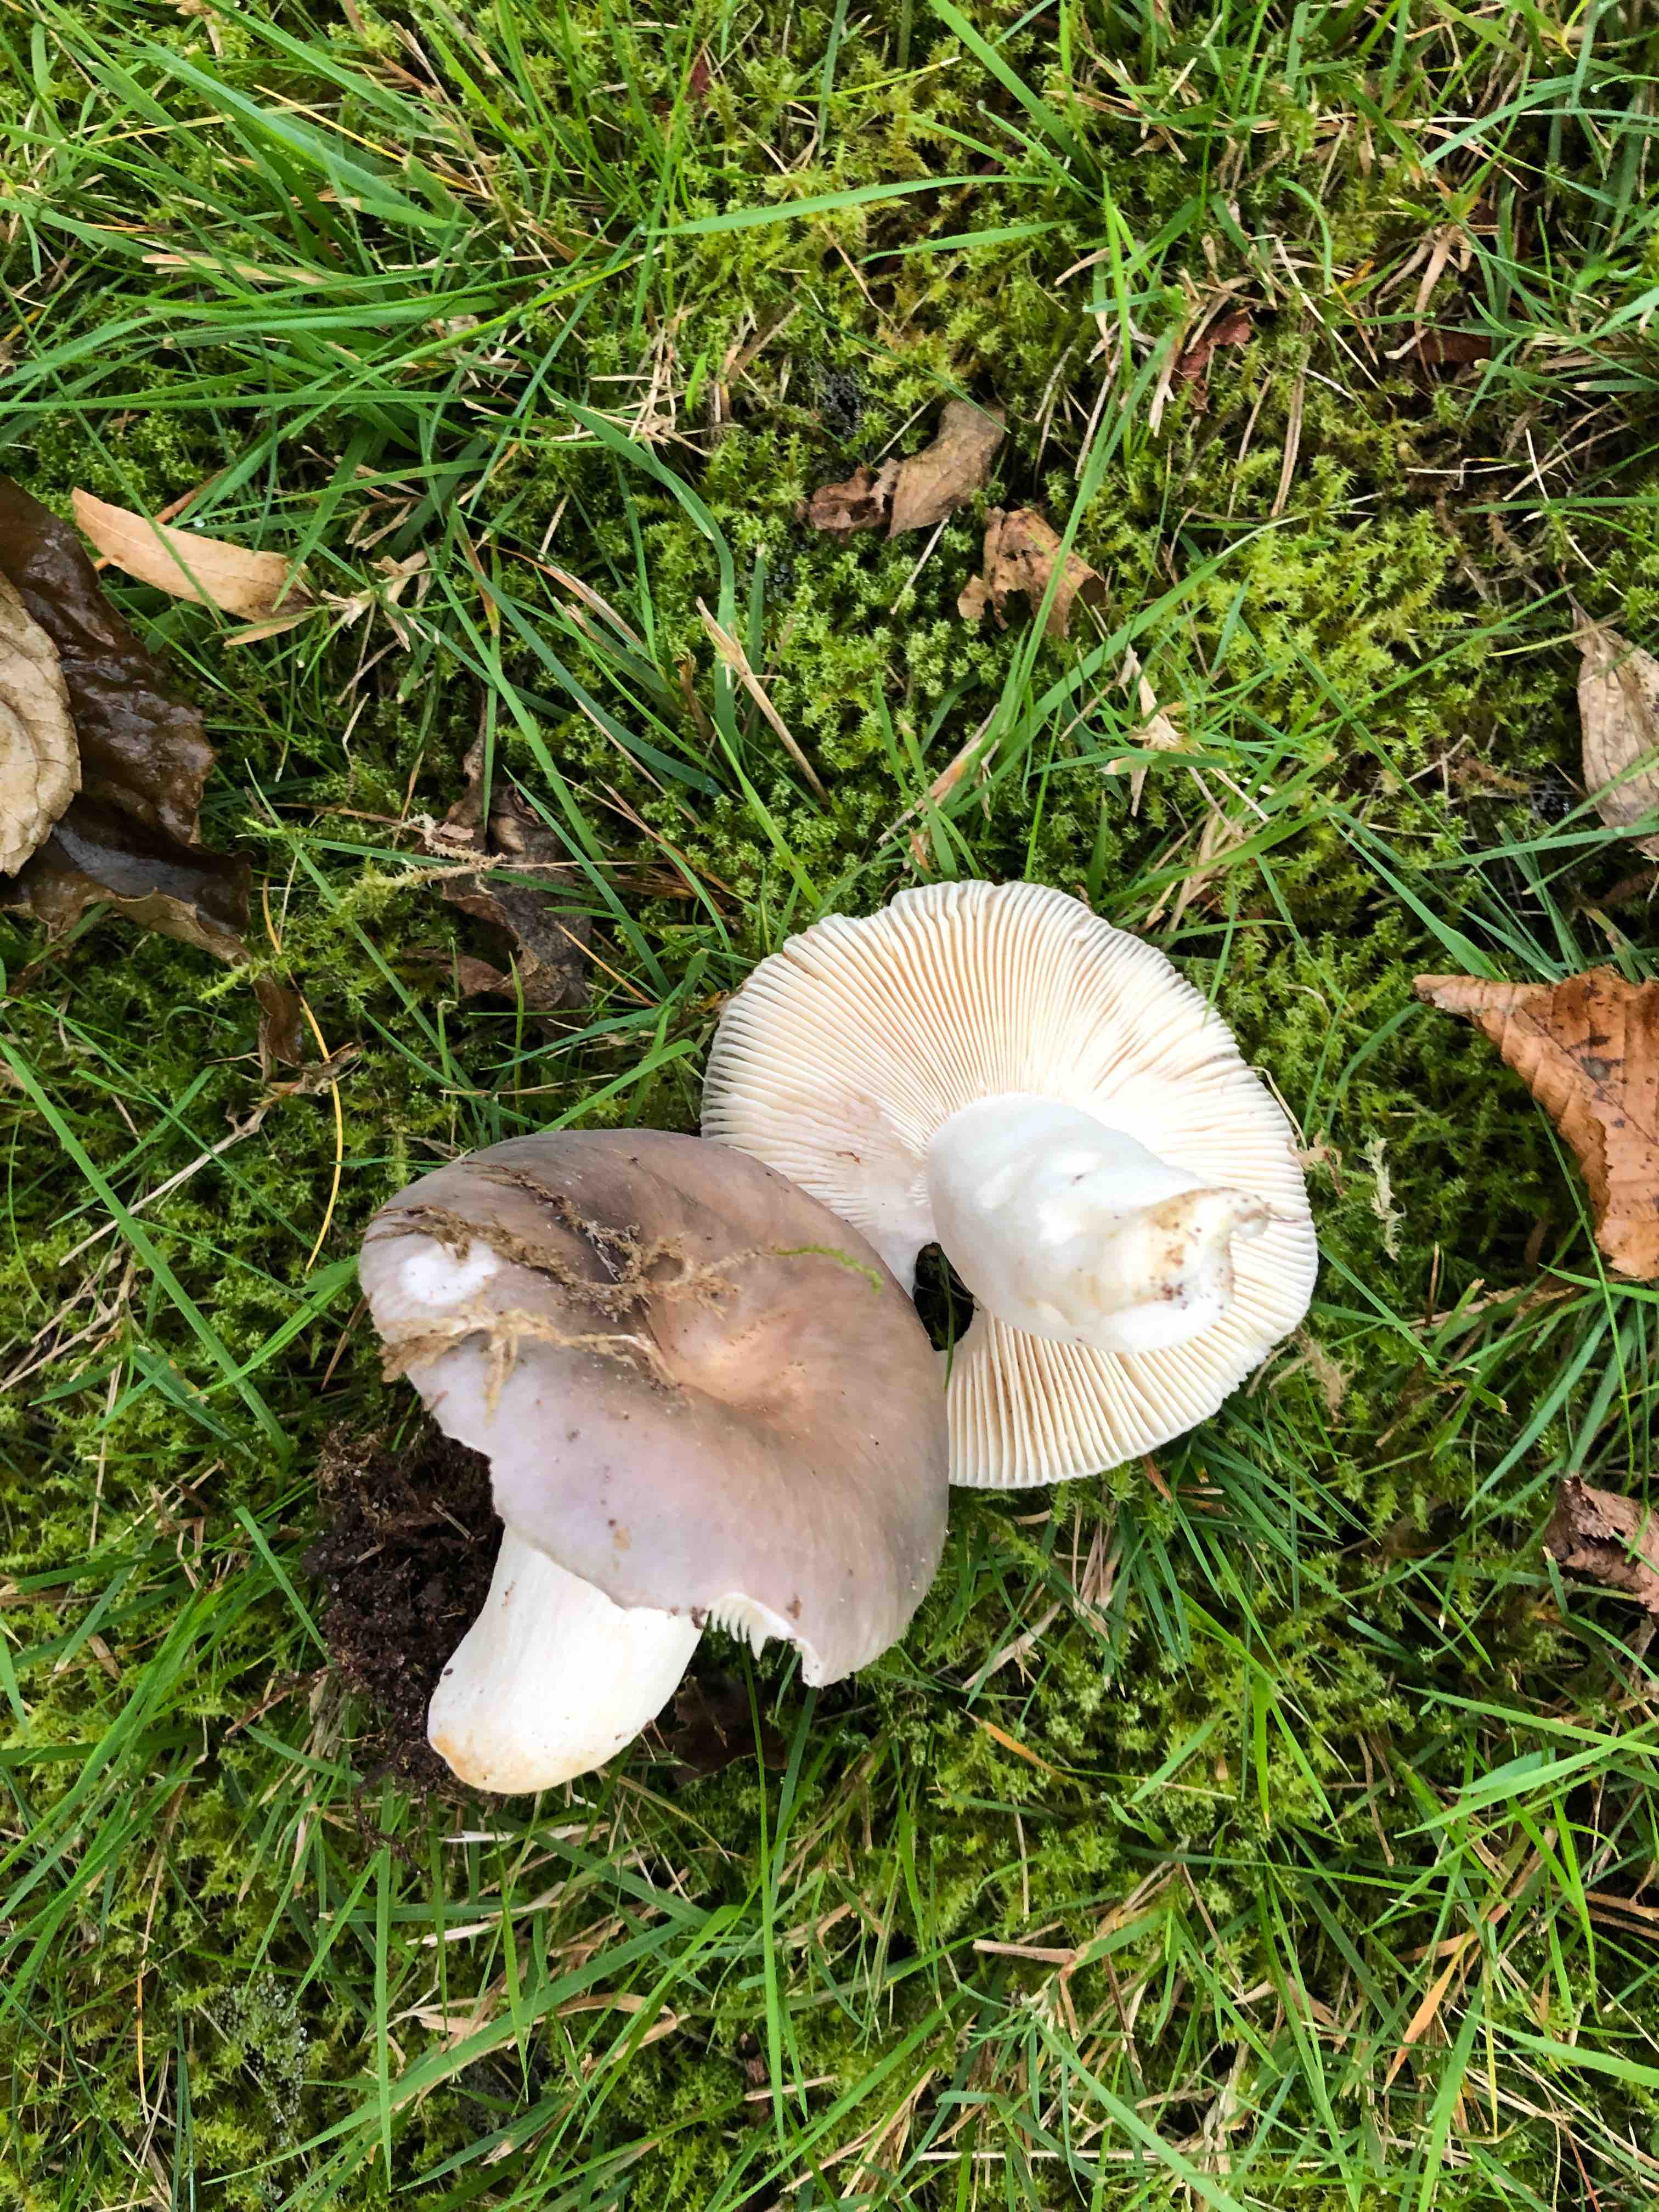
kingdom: Fungi
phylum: Basidiomycota
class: Agaricomycetes
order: Russulales
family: Russulaceae
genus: Russula
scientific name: Russula
